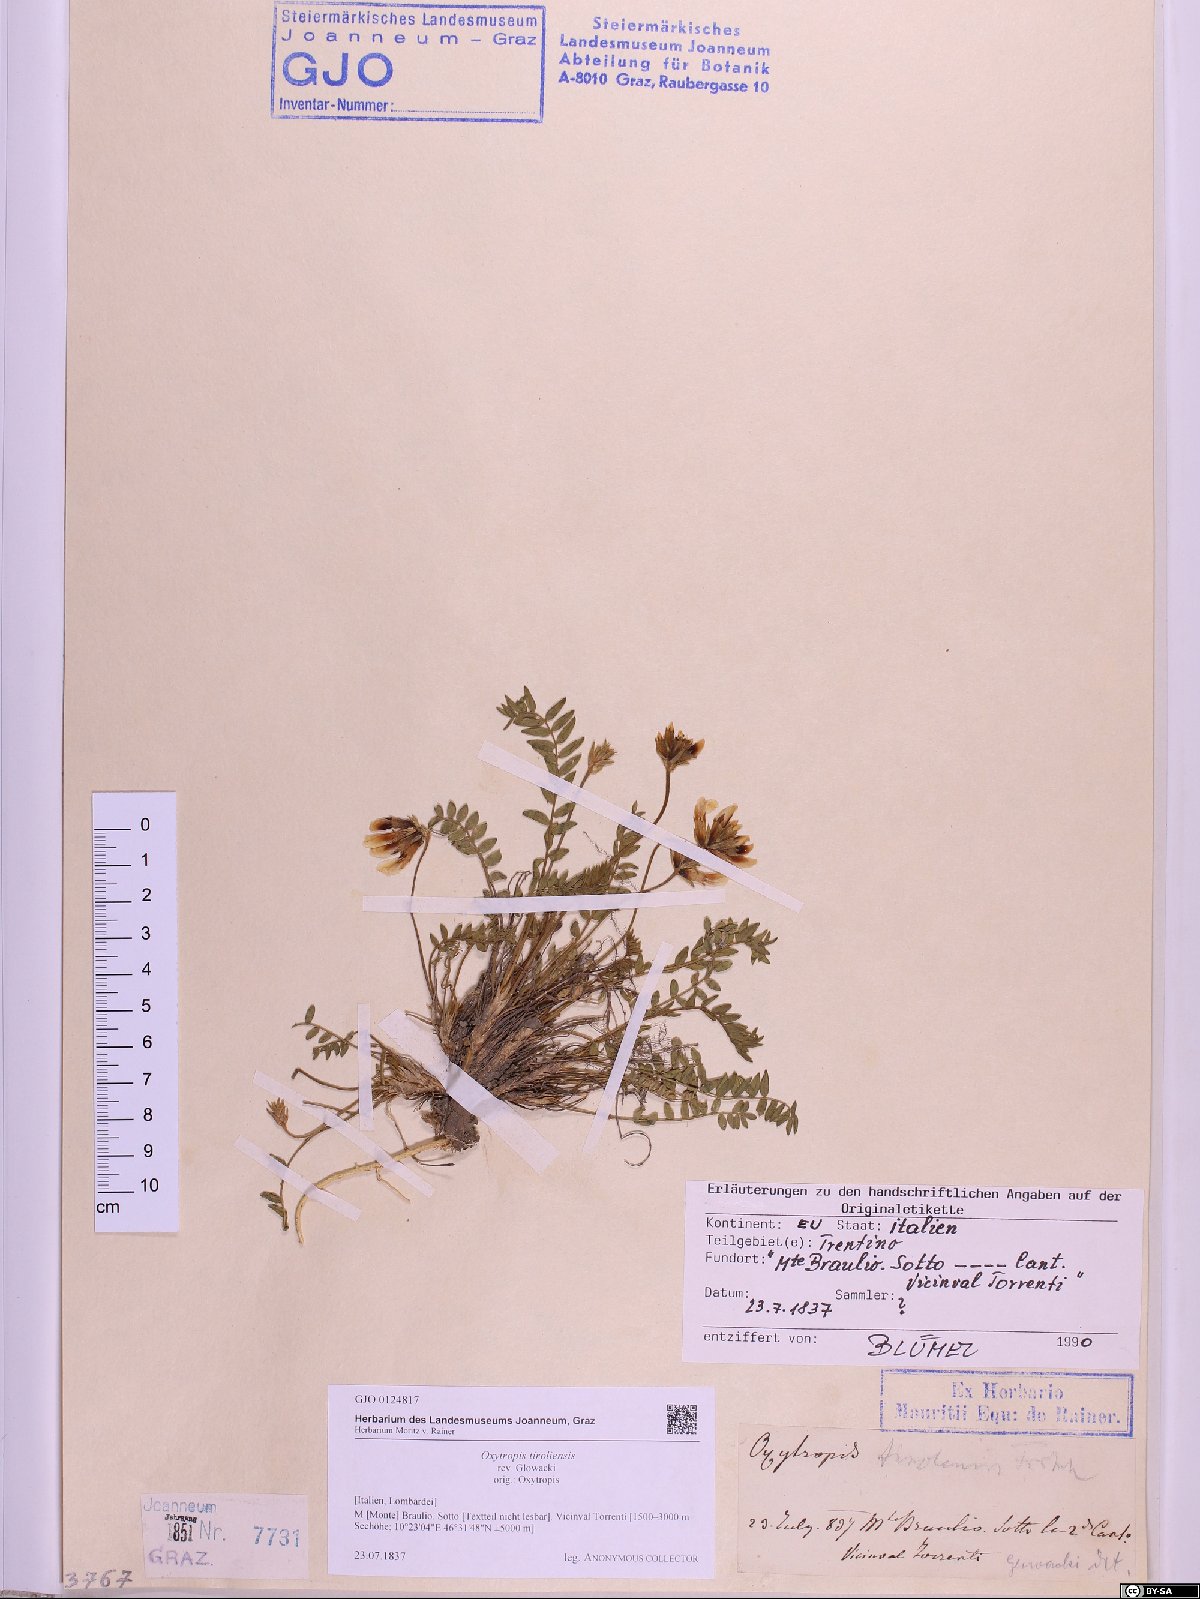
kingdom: Plantae
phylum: Tracheophyta
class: Magnoliopsida
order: Fabales
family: Fabaceae
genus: Oxytropis
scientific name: Oxytropis campestris
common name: Field locoweed
